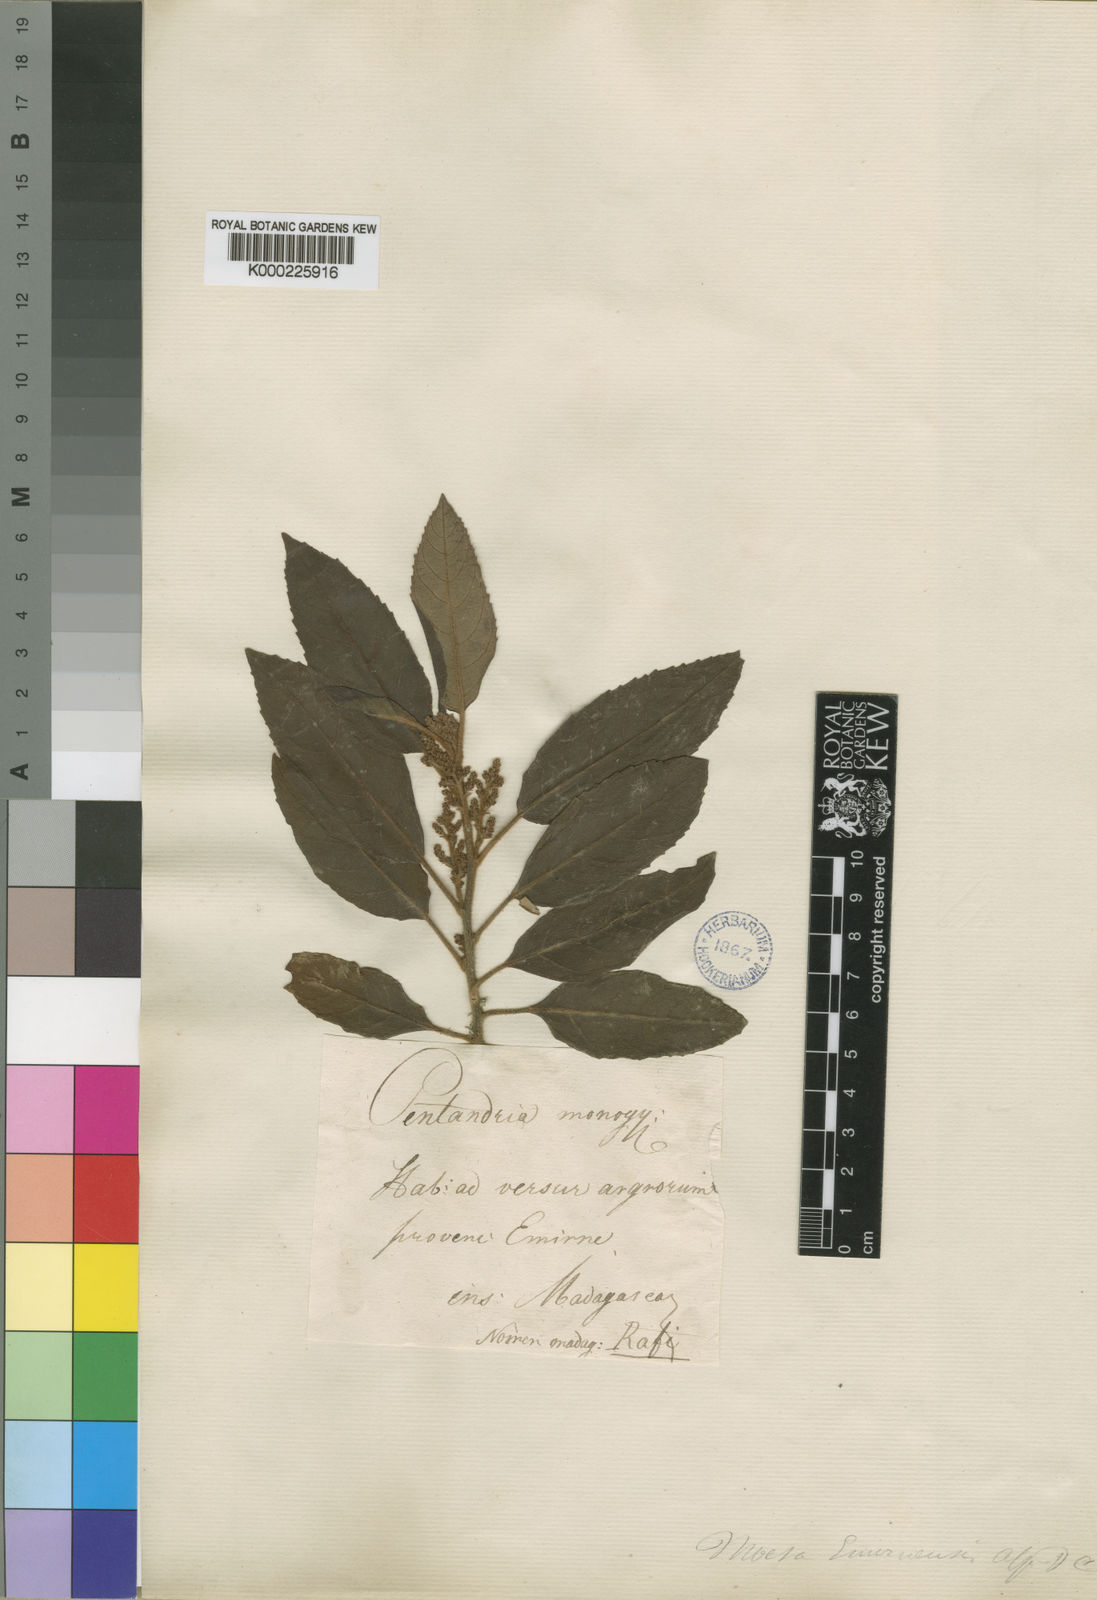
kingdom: Plantae
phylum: Tracheophyta
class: Magnoliopsida
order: Ericales
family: Primulaceae
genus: Maesa
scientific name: Maesa lanceolata
